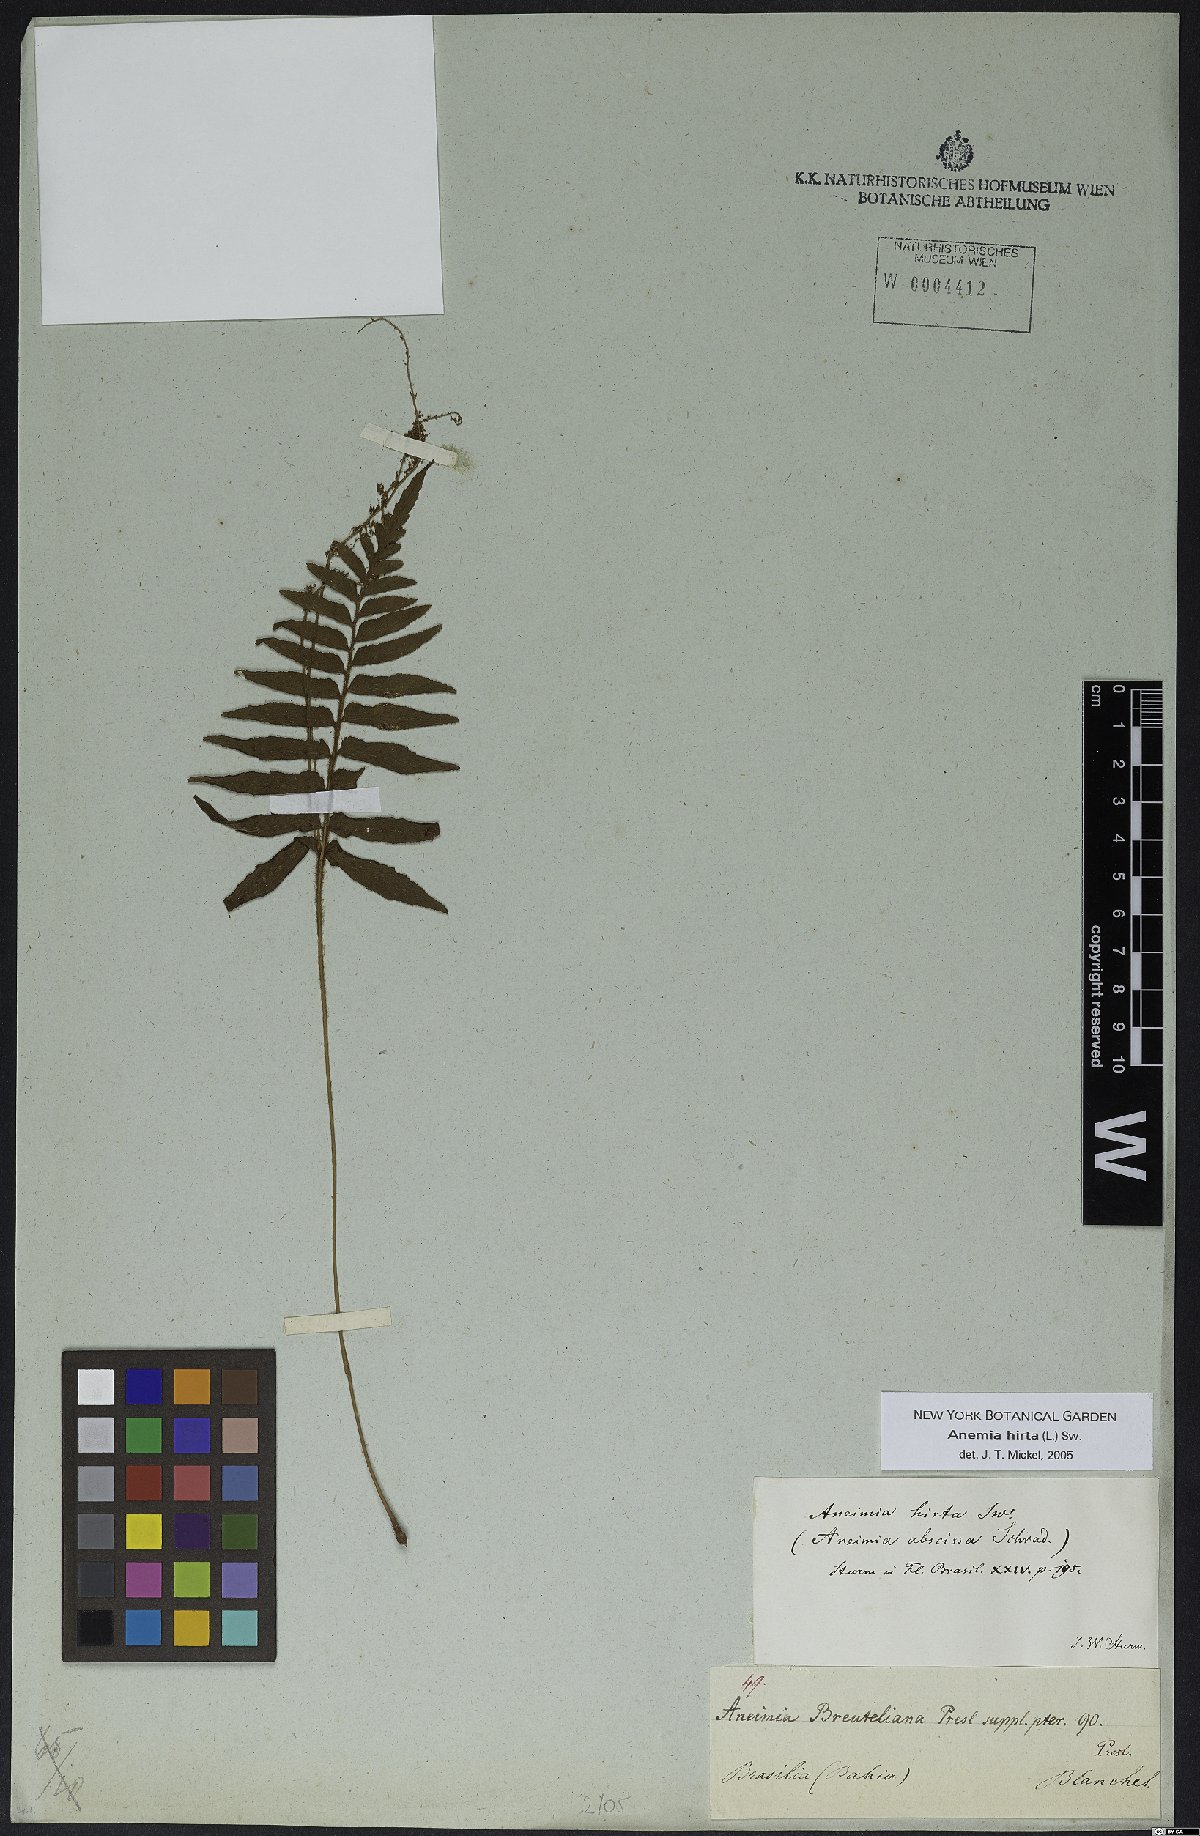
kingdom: Plantae
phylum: Tracheophyta
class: Polypodiopsida
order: Schizaeales
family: Anemiaceae
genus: Anemia
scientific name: Anemia hirsuta
